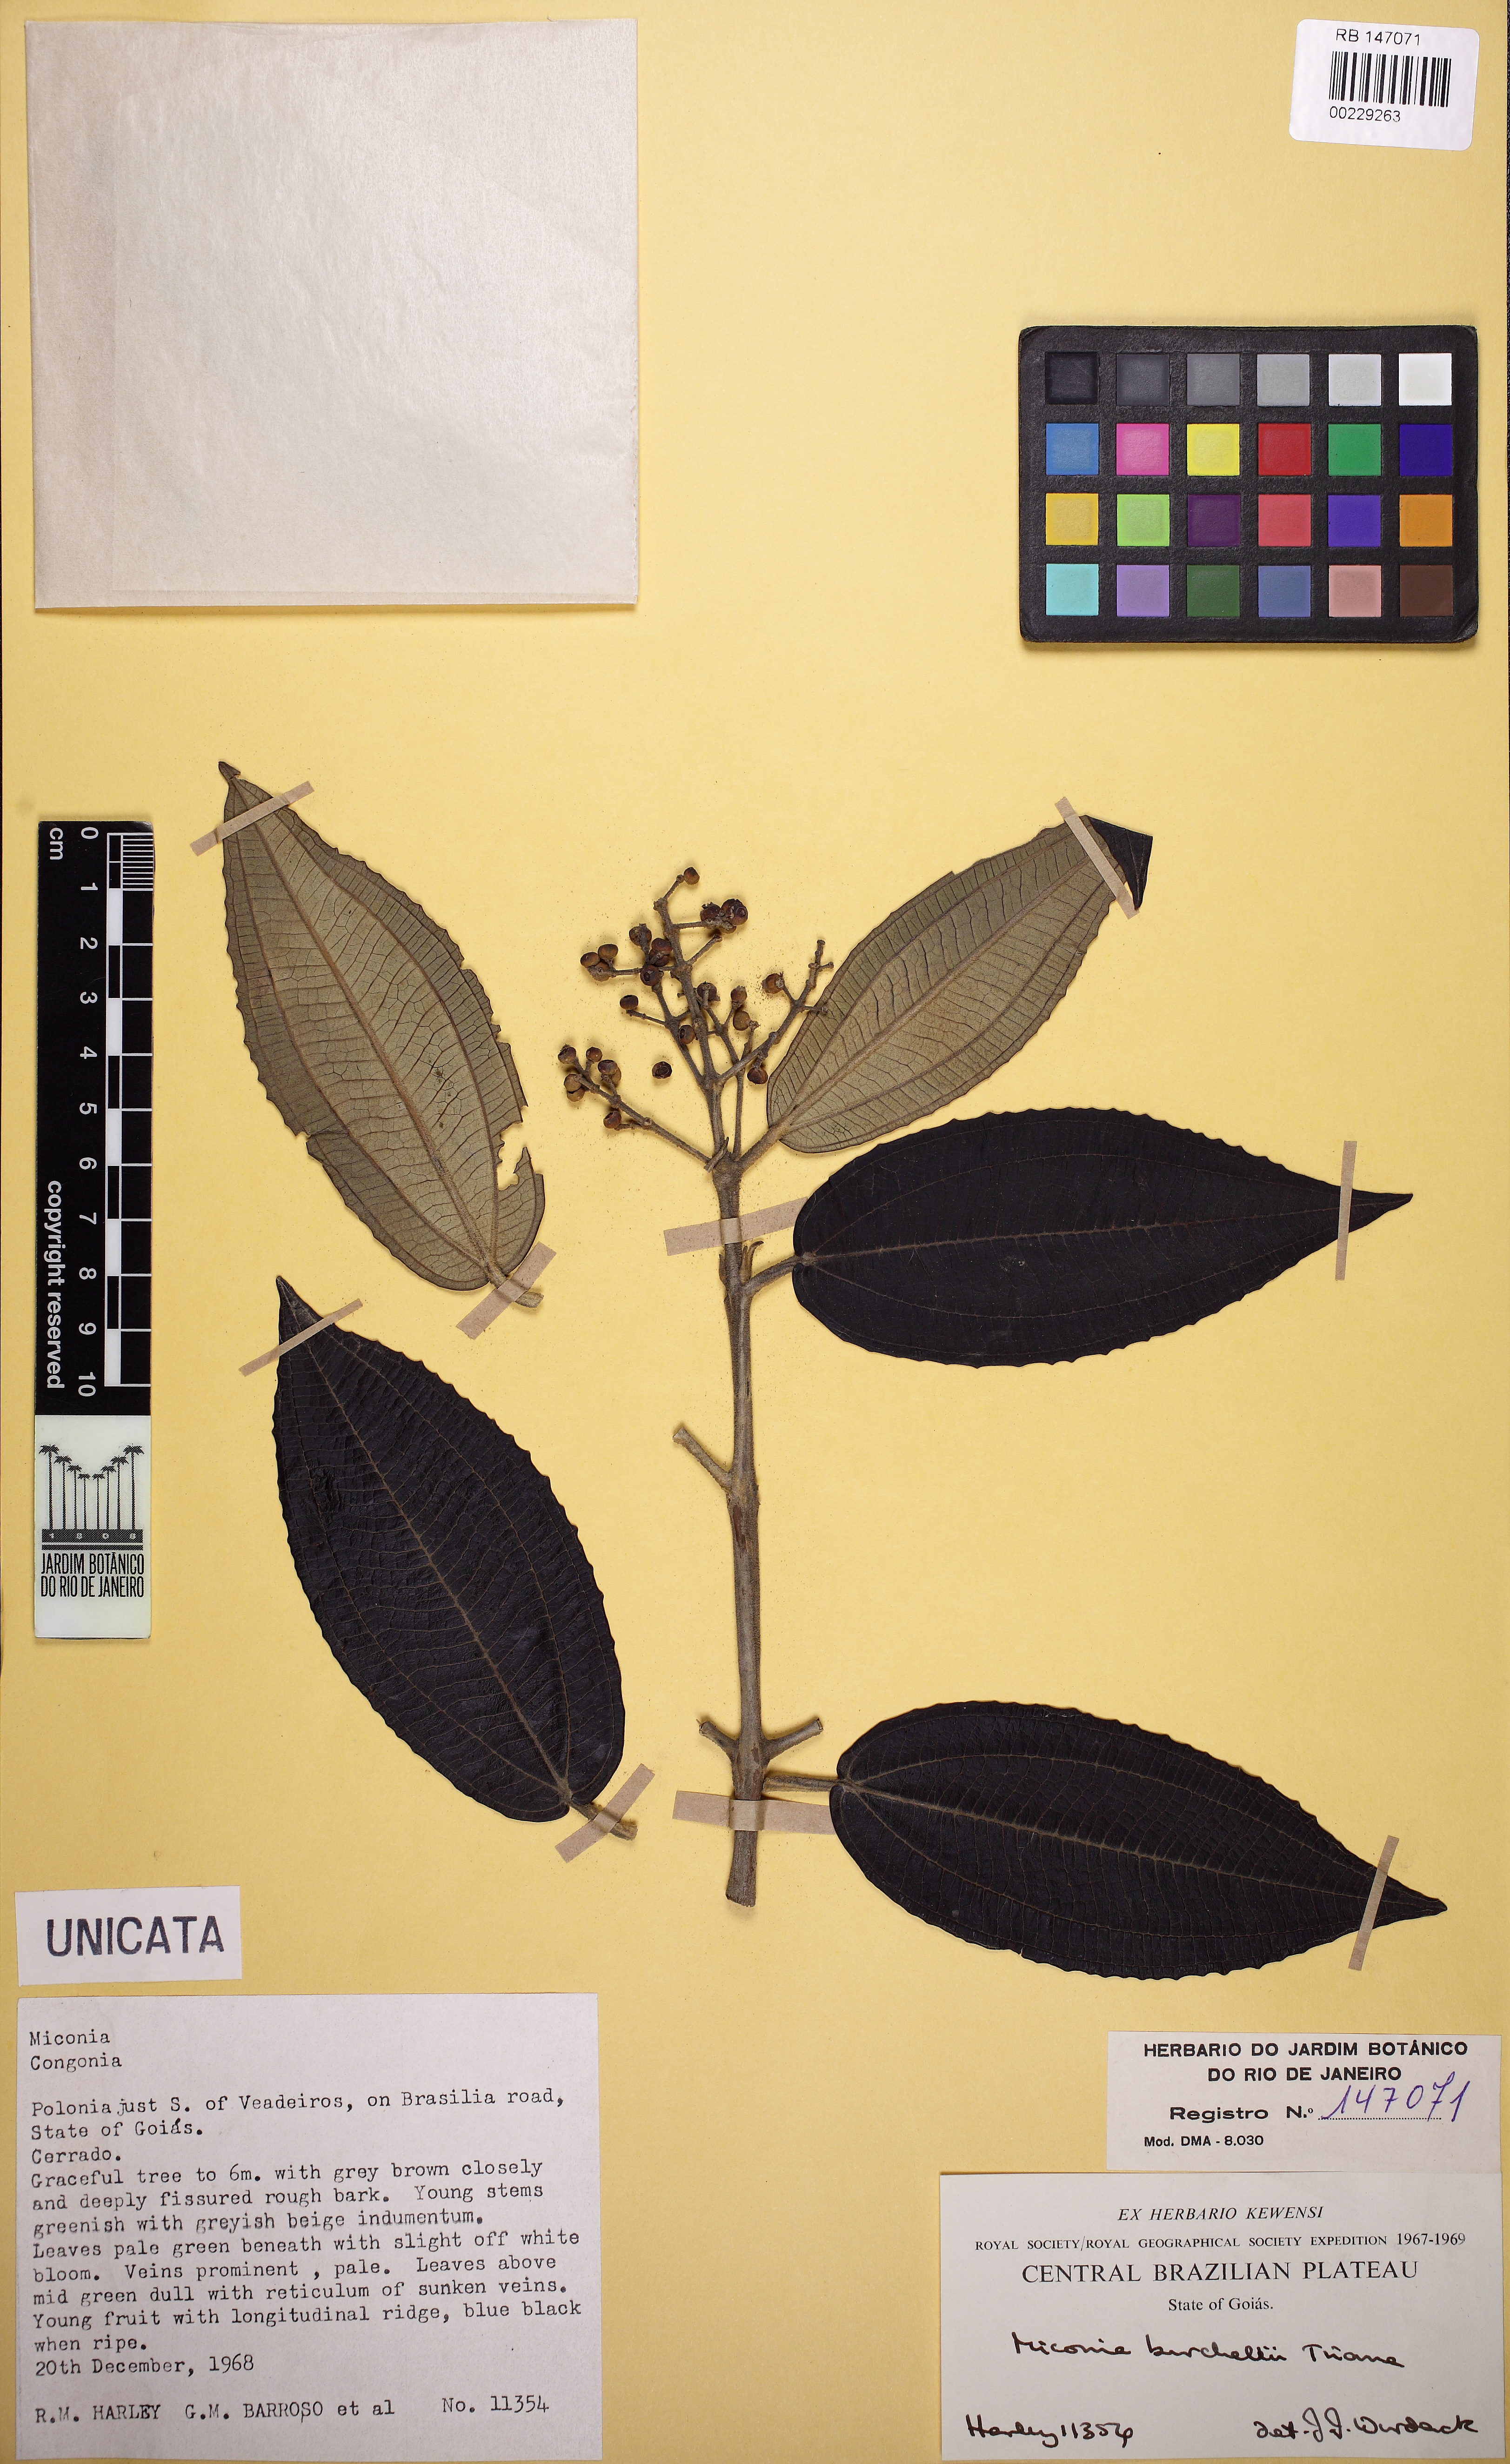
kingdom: Plantae
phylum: Tracheophyta
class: Magnoliopsida
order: Myrtales
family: Melastomataceae
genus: Miconia
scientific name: Miconia burchellii
